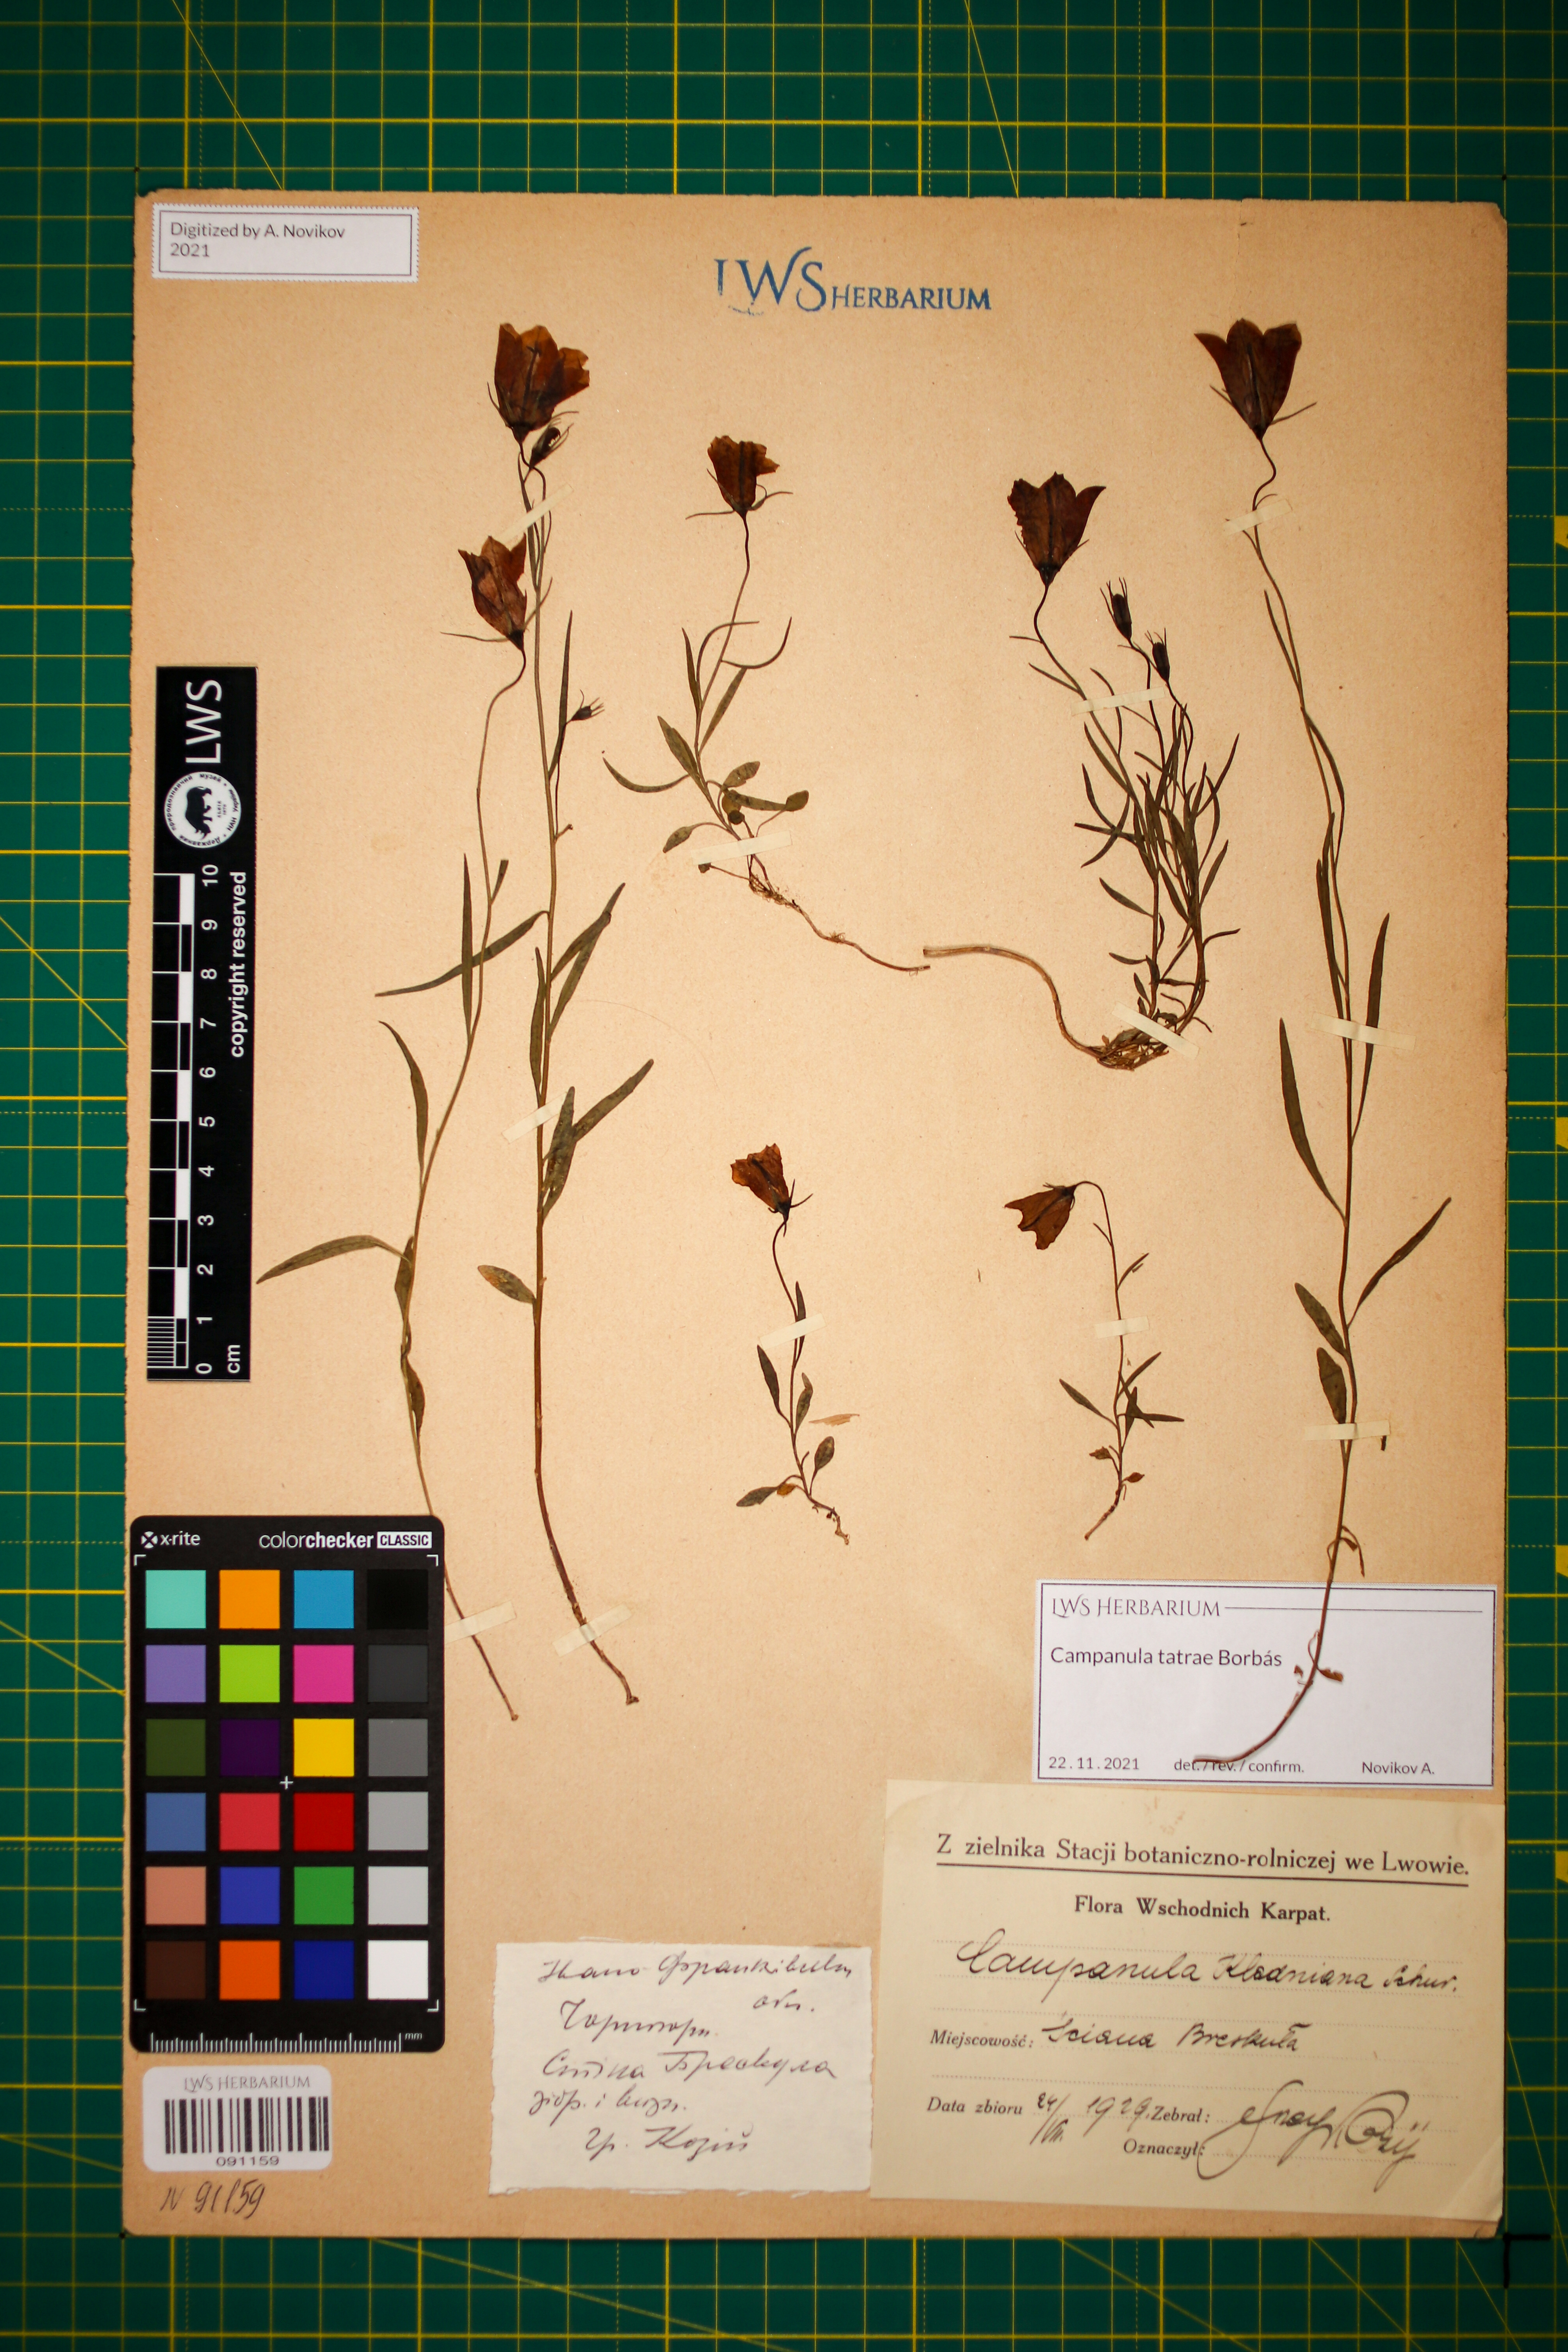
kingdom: Plantae
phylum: Tracheophyta
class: Magnoliopsida
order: Asterales
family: Campanulaceae
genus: Campanula
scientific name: Campanula kladniana
